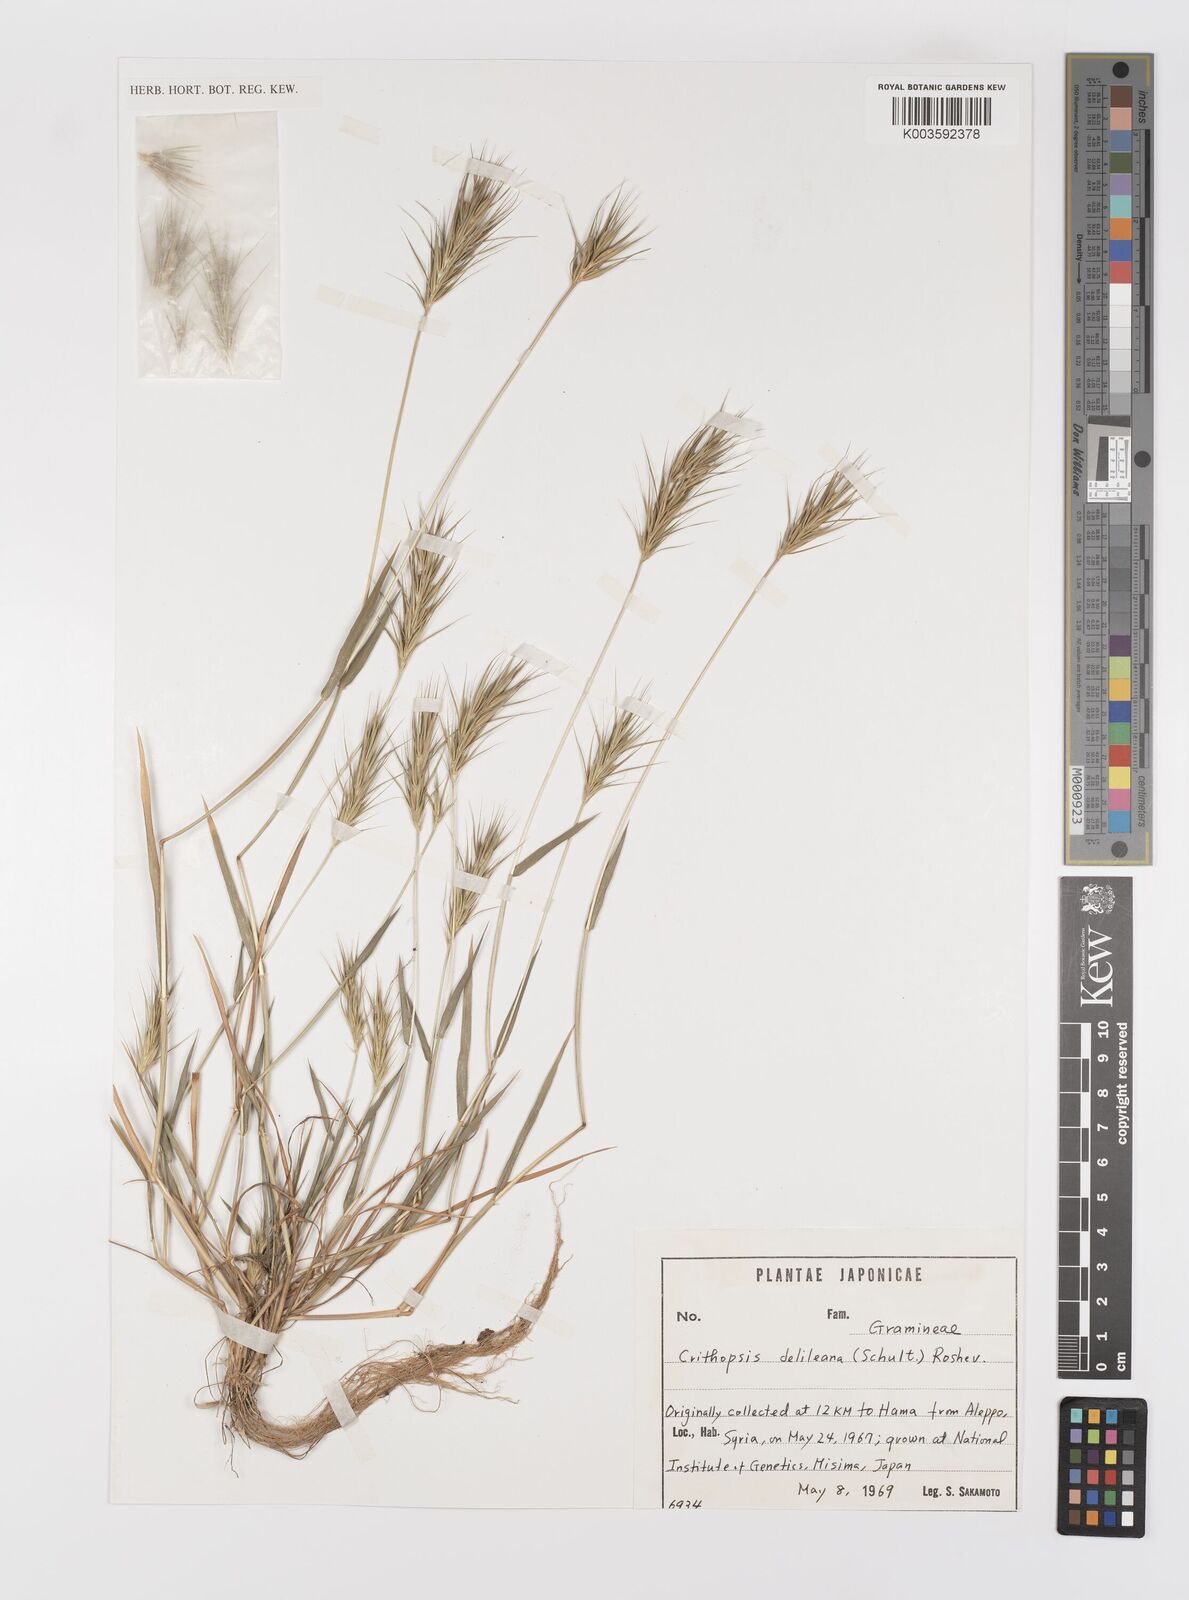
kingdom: Plantae
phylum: Tracheophyta
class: Liliopsida
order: Poales
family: Poaceae
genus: Crithopsis
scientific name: Crithopsis delileana
